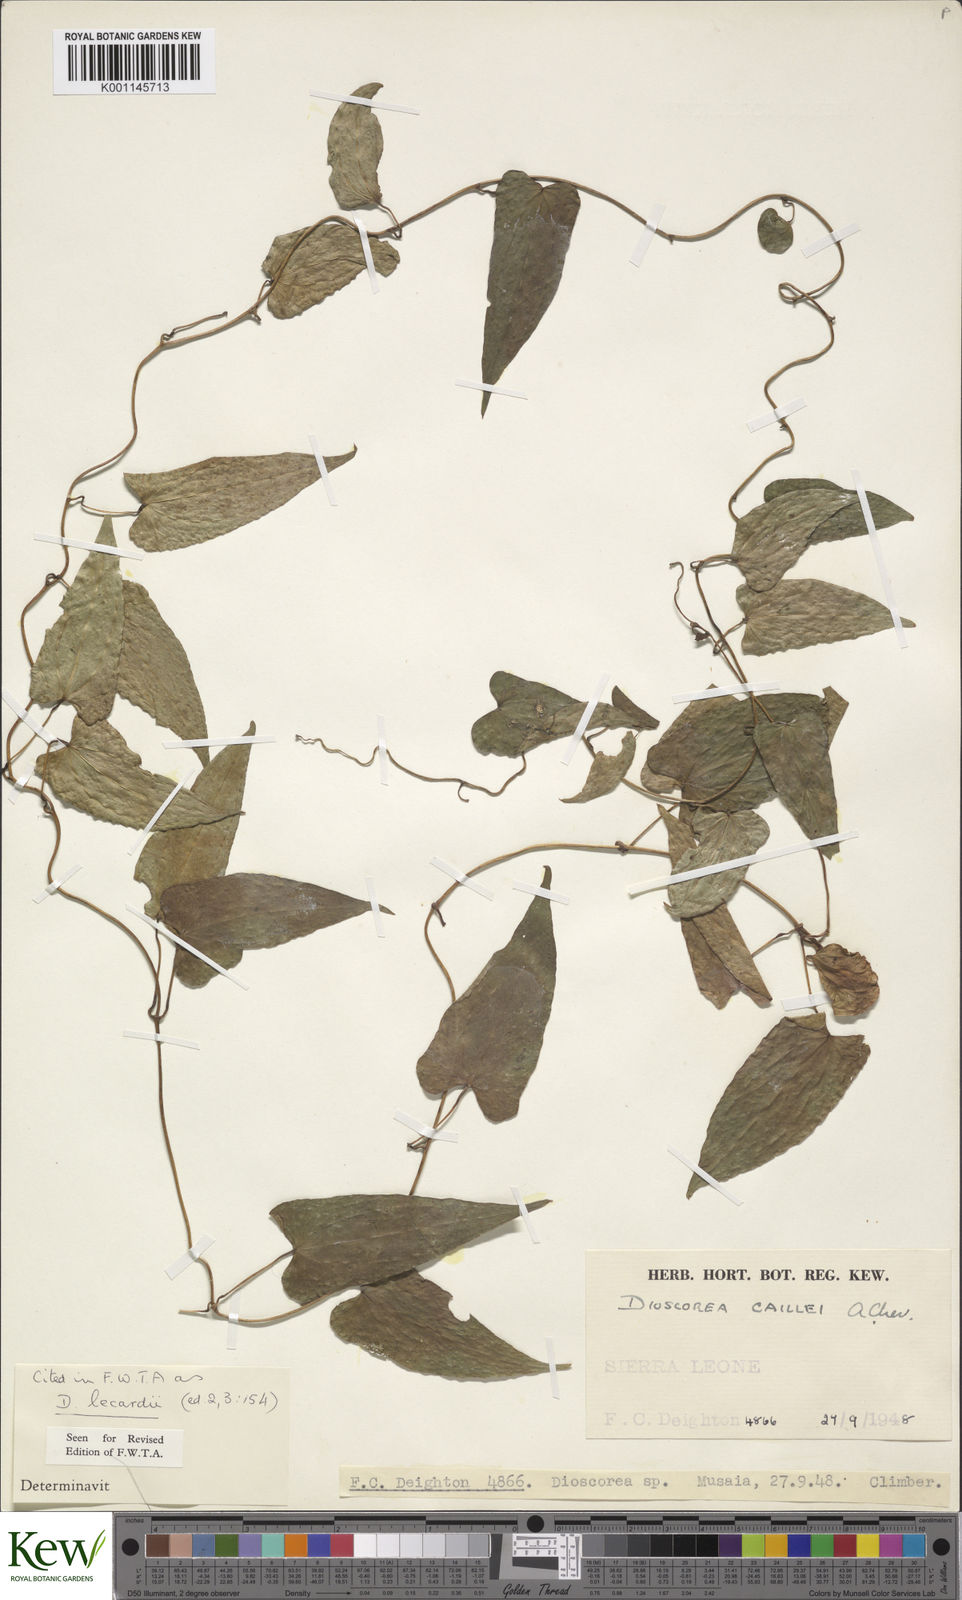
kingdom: Plantae
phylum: Tracheophyta
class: Liliopsida
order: Dioscoreales
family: Dioscoreaceae
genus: Dioscorea
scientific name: Dioscorea sagittifolia
